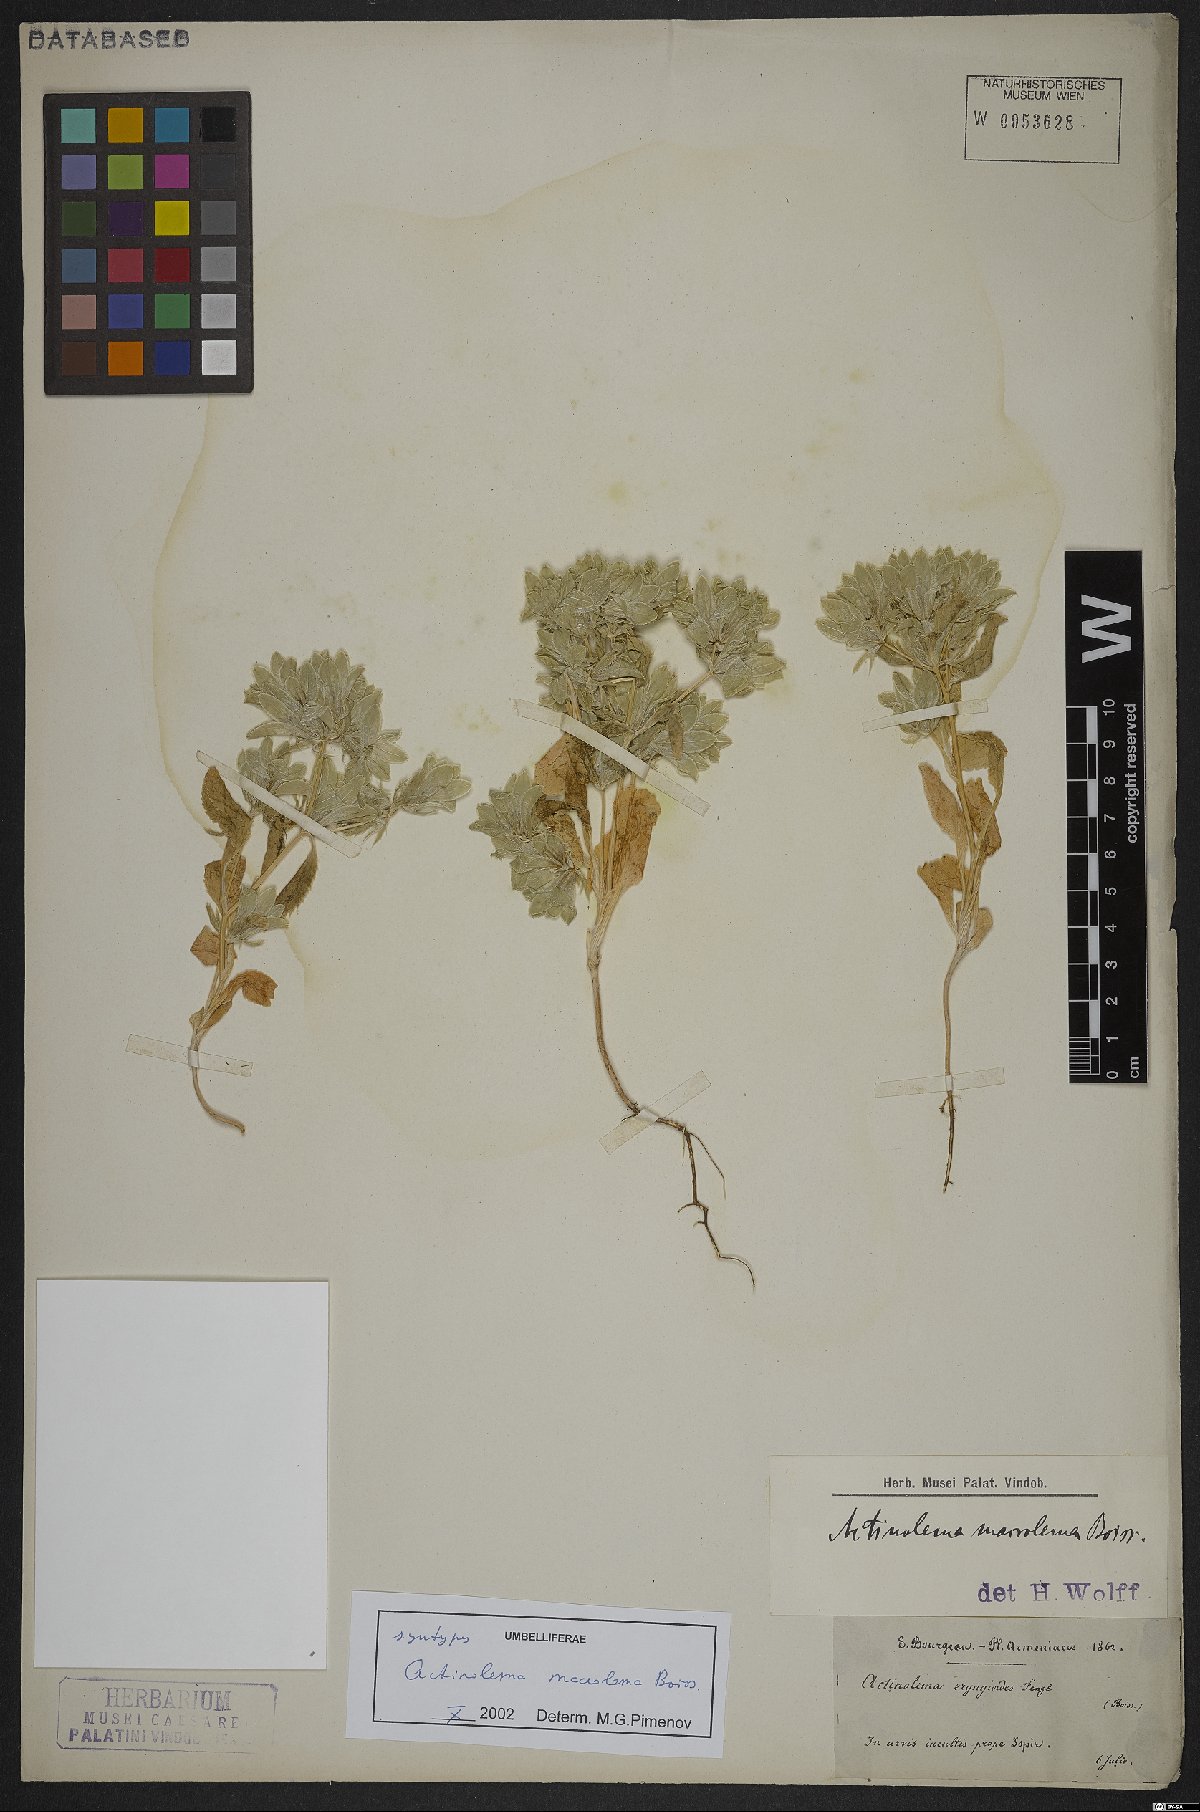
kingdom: Plantae
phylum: Tracheophyta
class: Magnoliopsida
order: Apiales
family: Apiaceae
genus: Actinolema
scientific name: Actinolema macrolema
